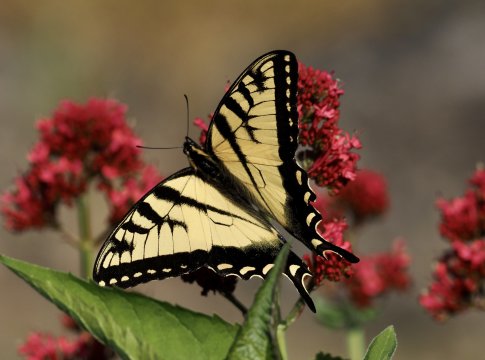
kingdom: Animalia
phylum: Arthropoda
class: Insecta
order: Lepidoptera
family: Papilionidae
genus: Pterourus
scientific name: Pterourus canadensis
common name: Canadian Tiger Swallowtail
